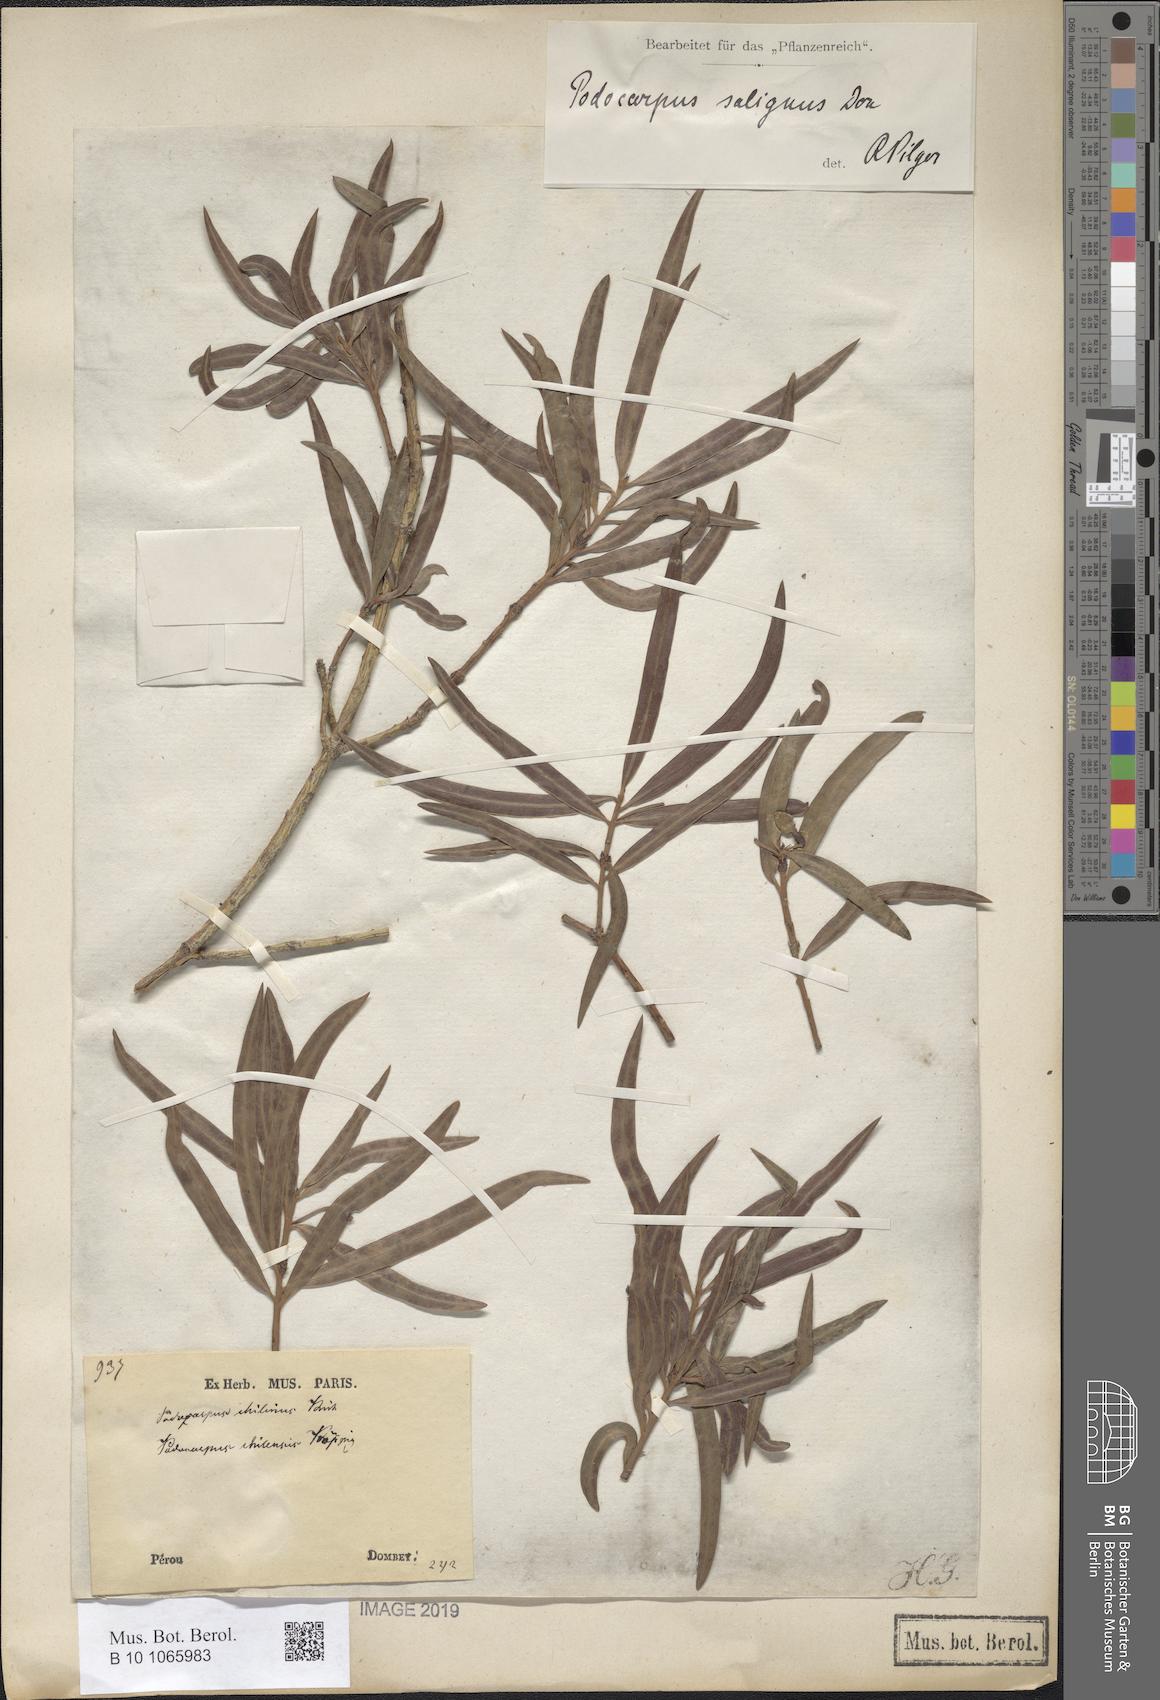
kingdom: Plantae
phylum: Tracheophyta
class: Pinopsida
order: Pinales
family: Podocarpaceae
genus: Podocarpus
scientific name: Podocarpus salignus
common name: Willow-leaf podocarp
